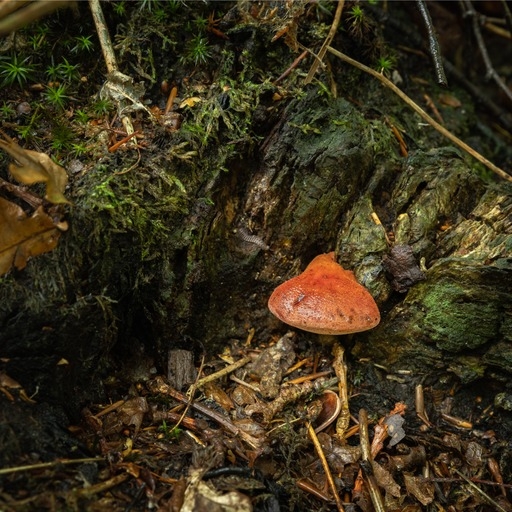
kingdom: Fungi
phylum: Basidiomycota
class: Agaricomycetes
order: Agaricales
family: Fistulinaceae
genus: Fistulina
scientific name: Fistulina hepatica
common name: oksetunge
